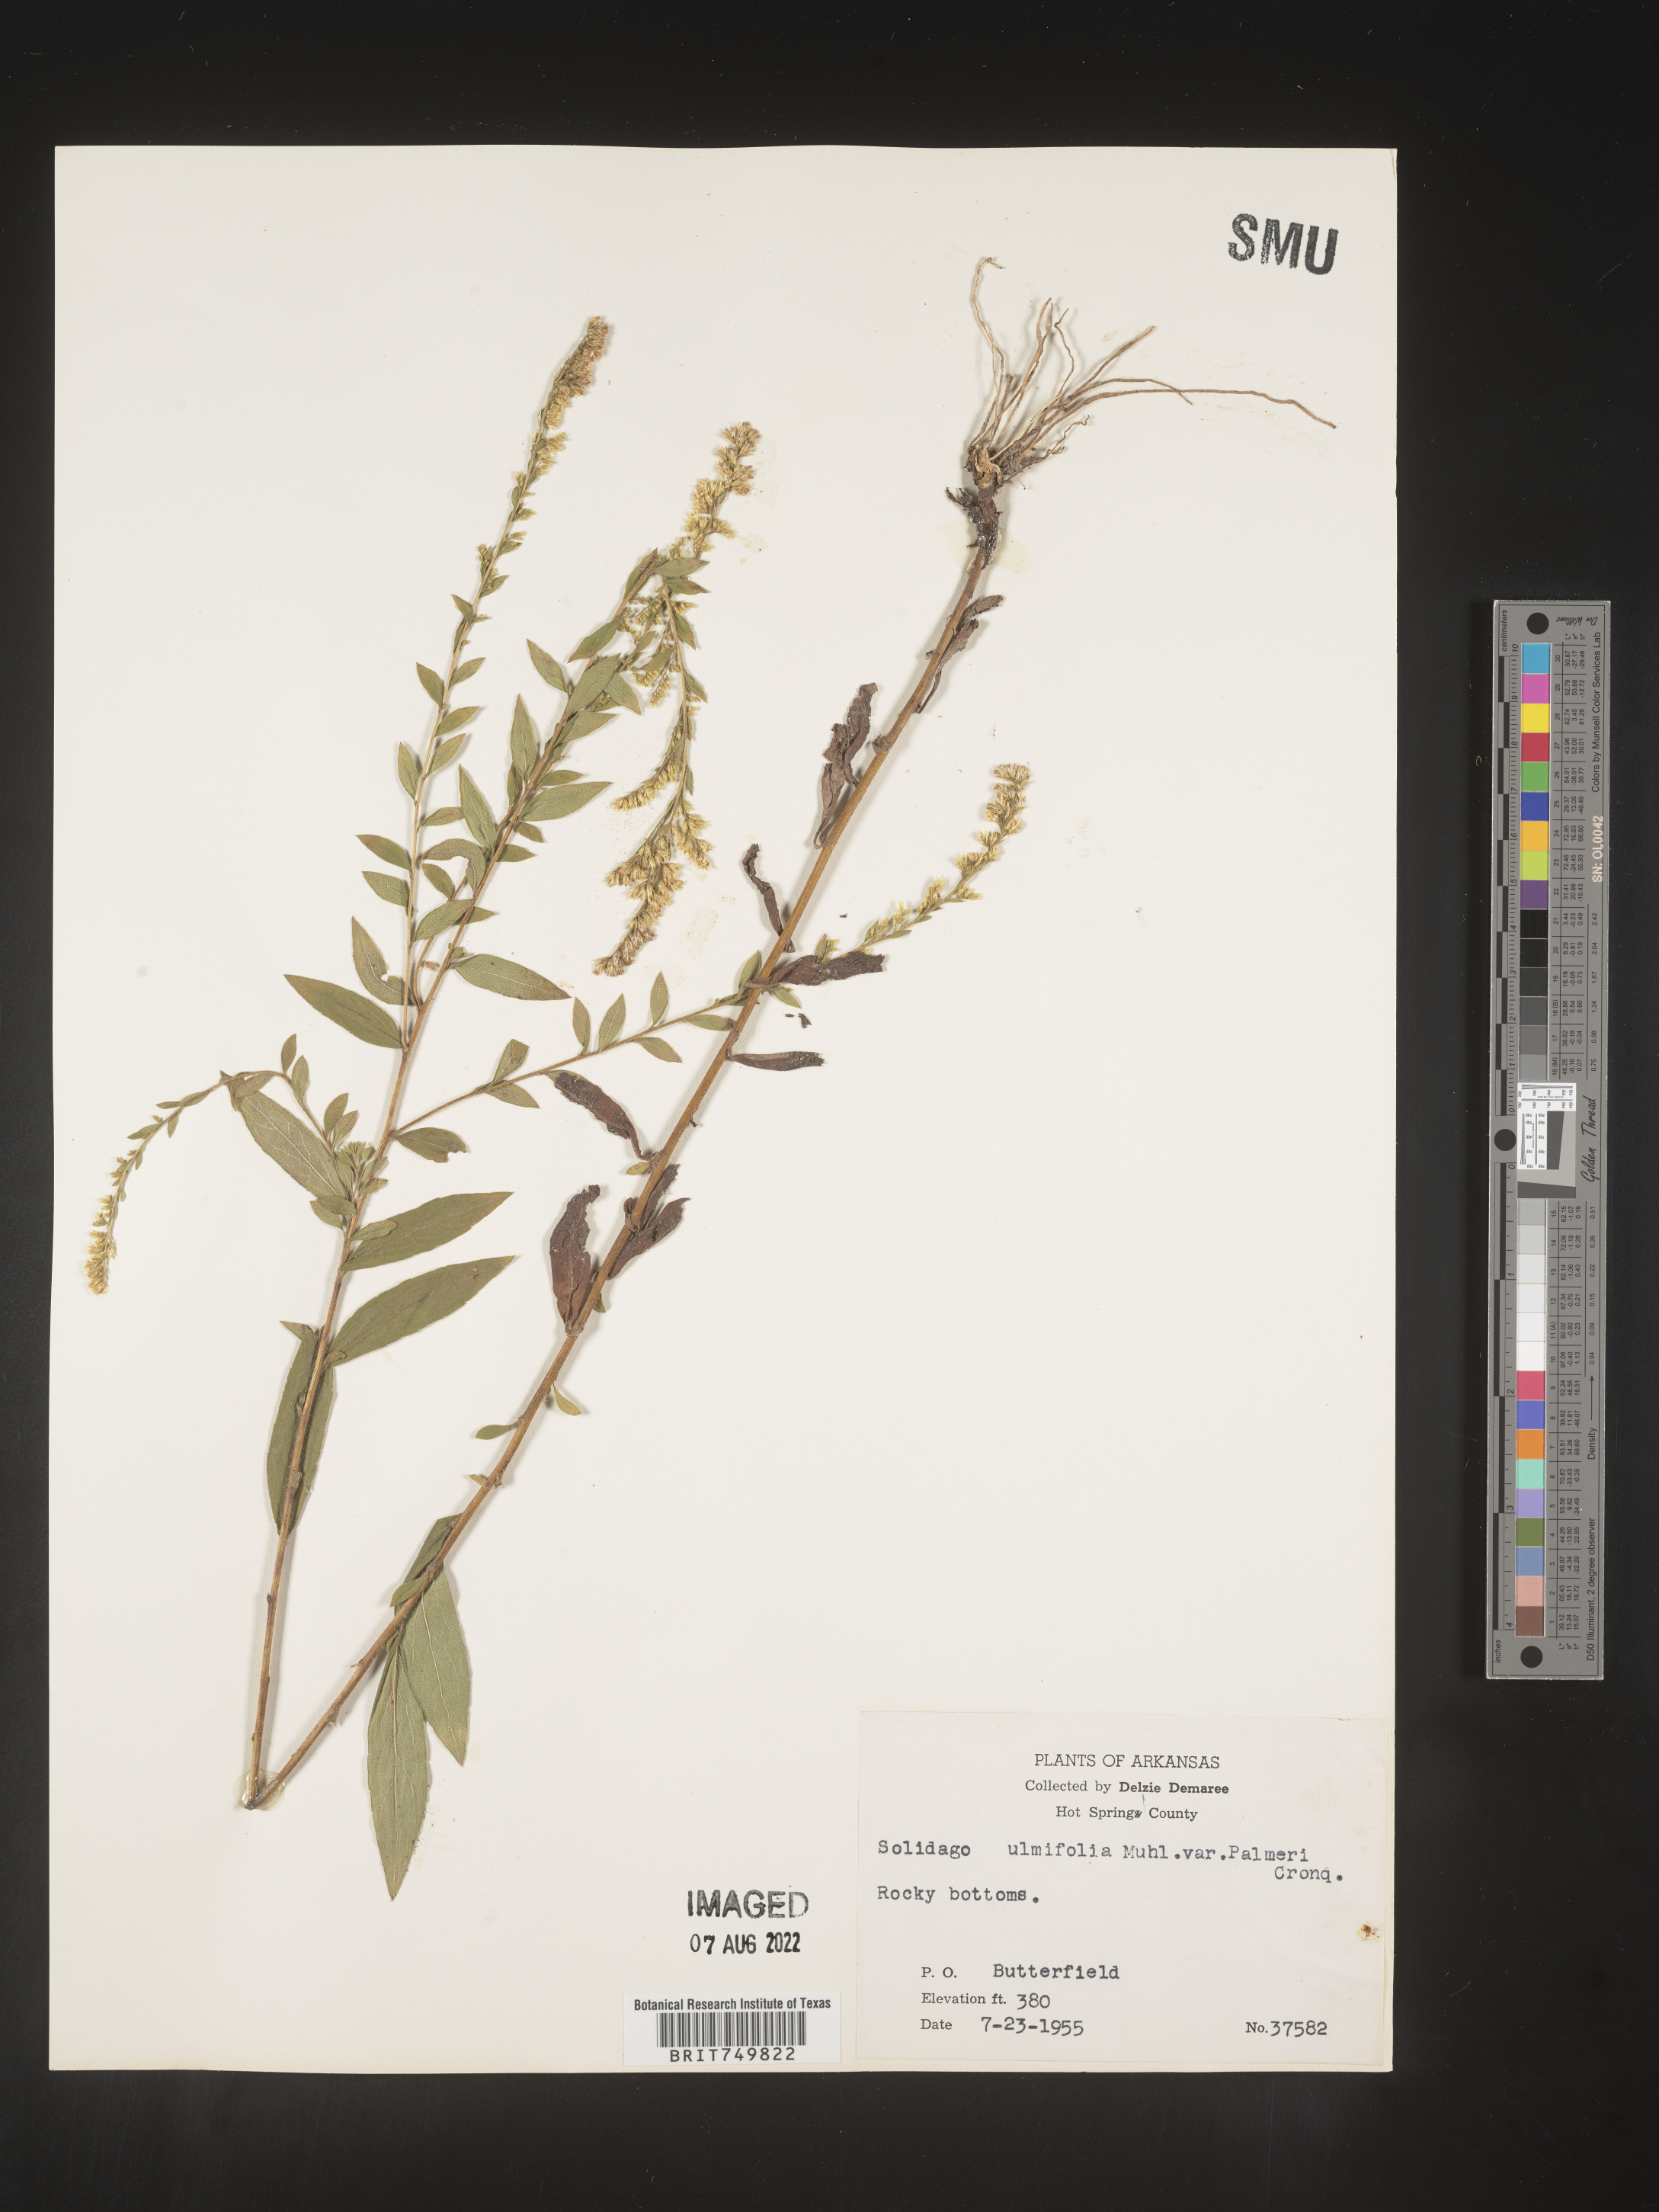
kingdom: Plantae
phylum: Tracheophyta
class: Magnoliopsida
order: Asterales
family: Asteraceae
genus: Solidago
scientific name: Solidago ulmifolia
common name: Elm-leaf goldenrod
